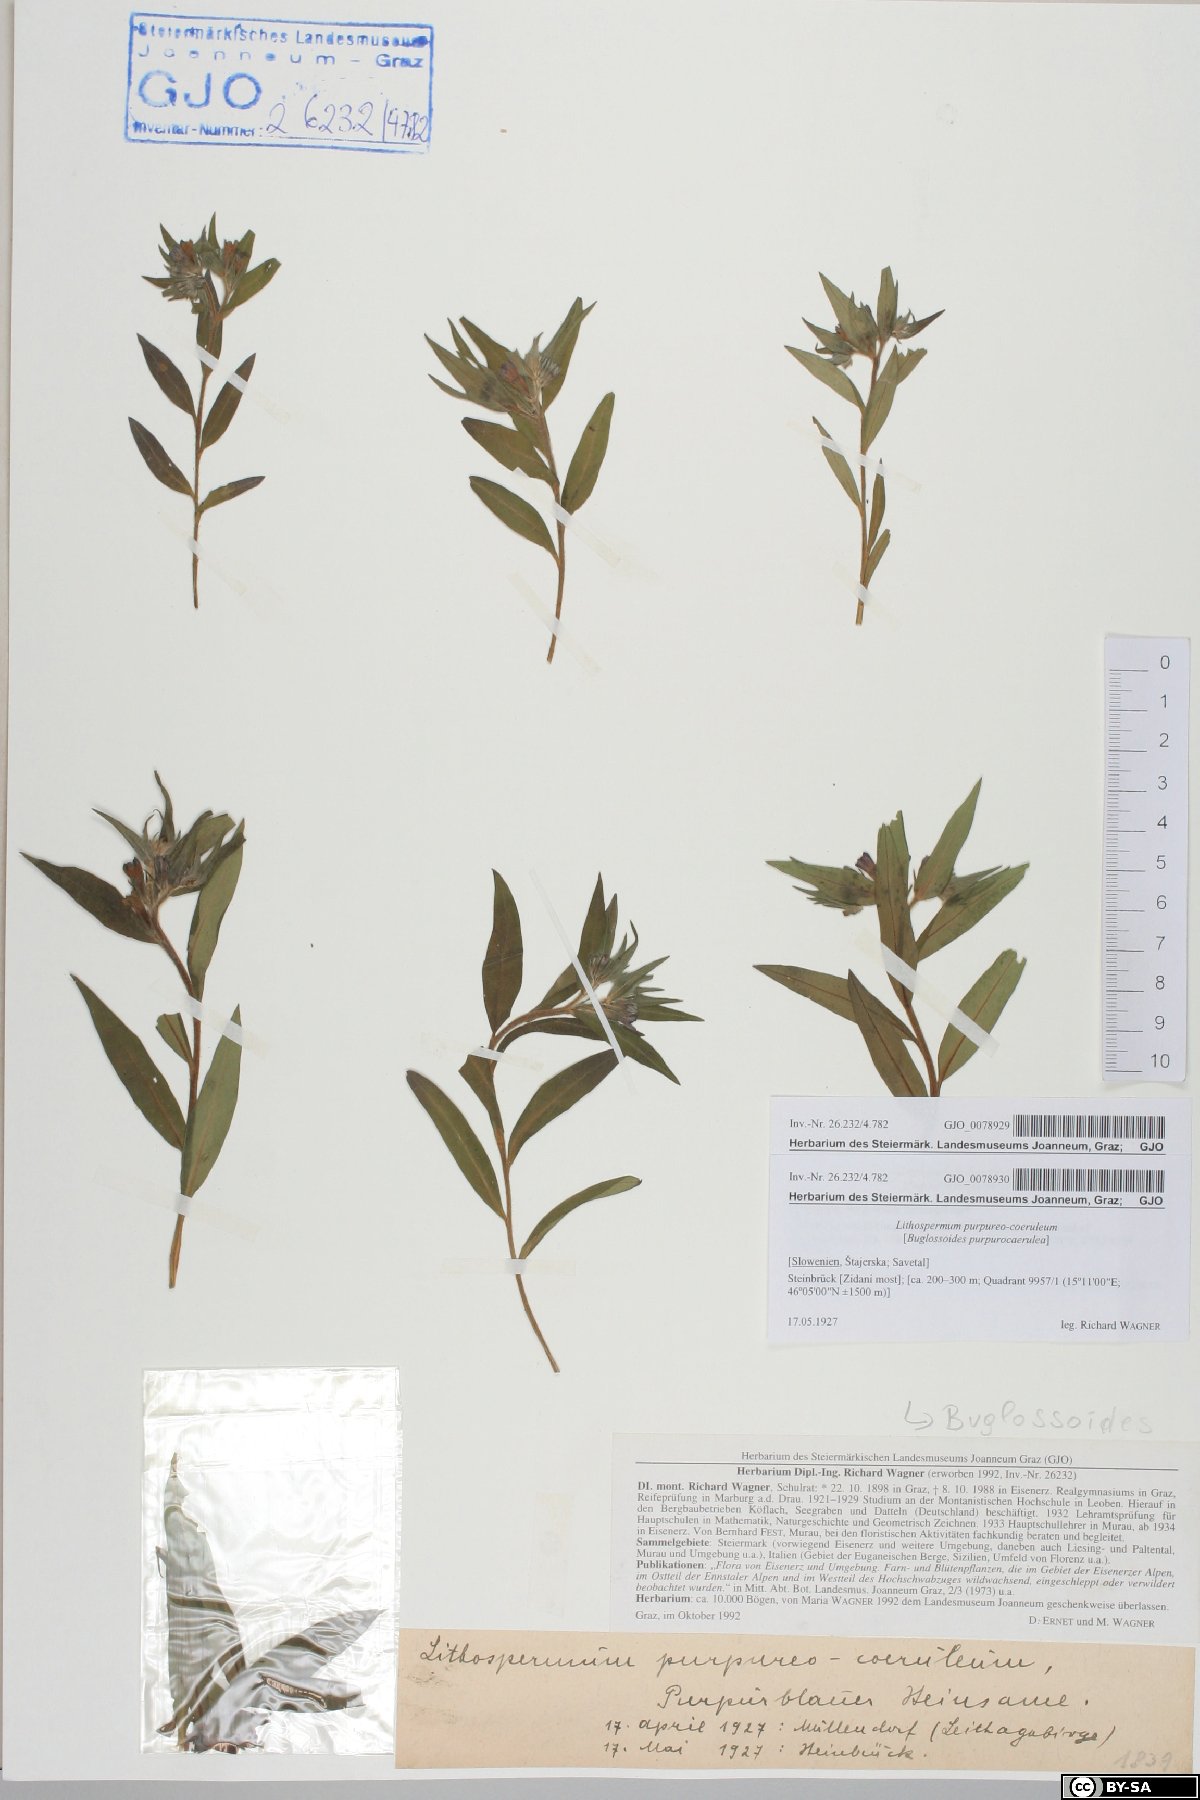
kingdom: Plantae
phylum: Tracheophyta
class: Magnoliopsida
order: Boraginales
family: Boraginaceae
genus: Aegonychon
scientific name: Aegonychon purpurocaeruleum
